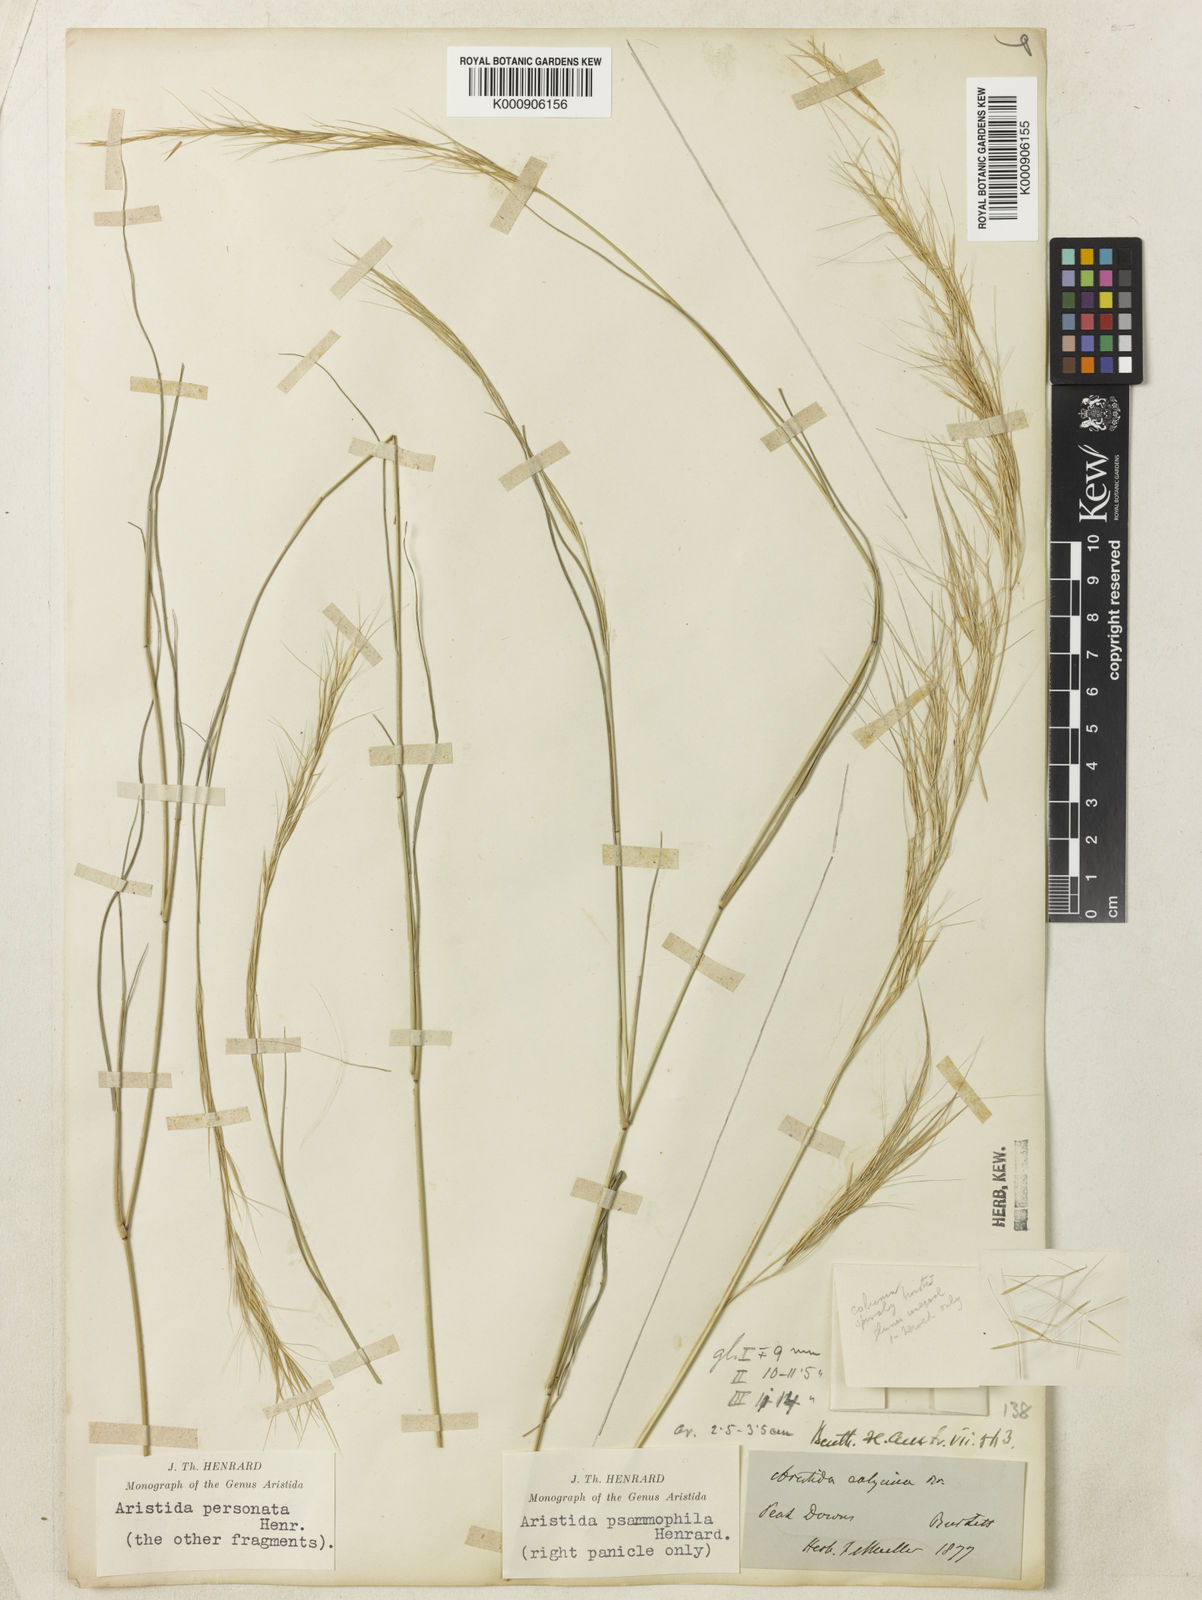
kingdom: Plantae
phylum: Tracheophyta
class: Liliopsida
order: Poales
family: Poaceae
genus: Aristida
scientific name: Aristida psammophila
